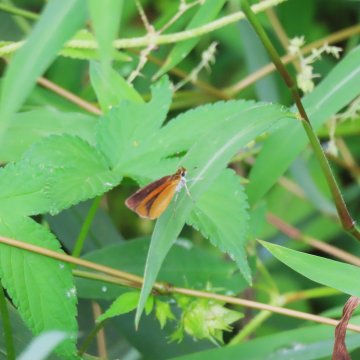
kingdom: Animalia
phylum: Arthropoda
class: Insecta
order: Lepidoptera
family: Hesperiidae
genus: Ancyloxypha
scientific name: Ancyloxypha numitor
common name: Least Skipper
